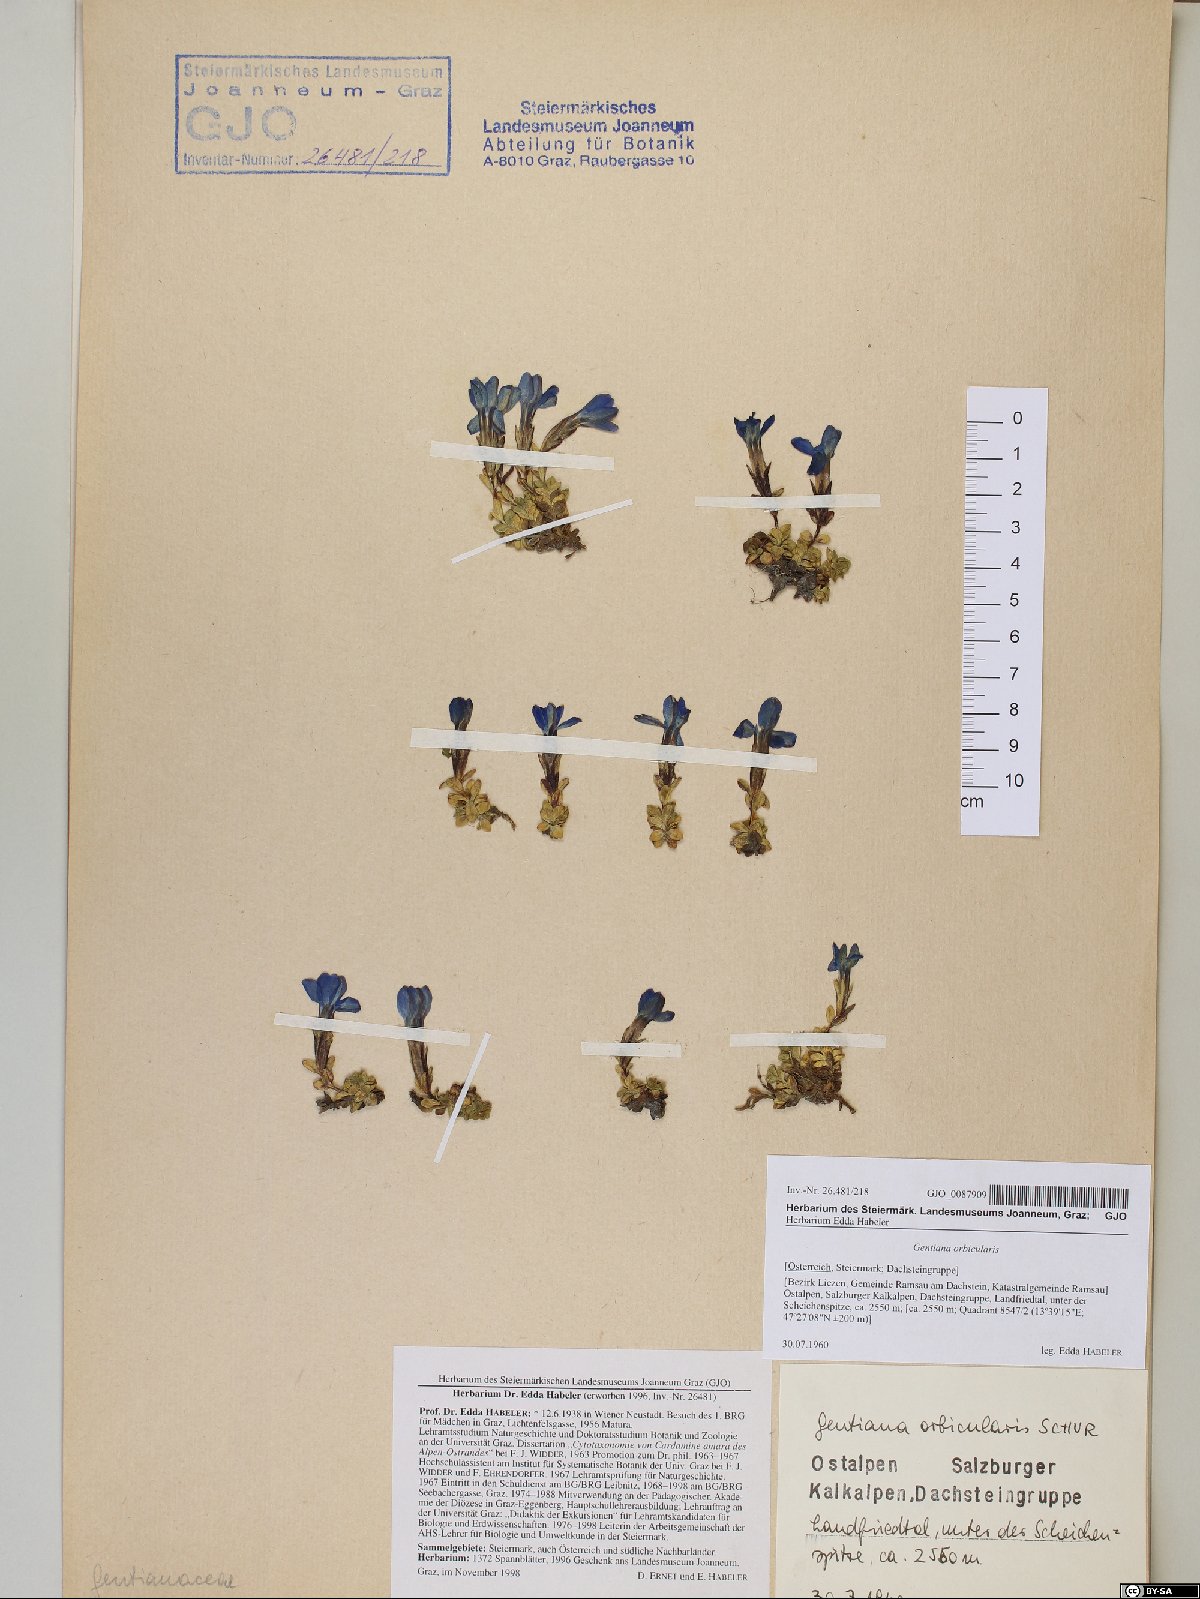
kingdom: Plantae
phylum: Tracheophyta
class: Magnoliopsida
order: Gentianales
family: Gentianaceae
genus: Gentiana
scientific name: Gentiana orbicularis
